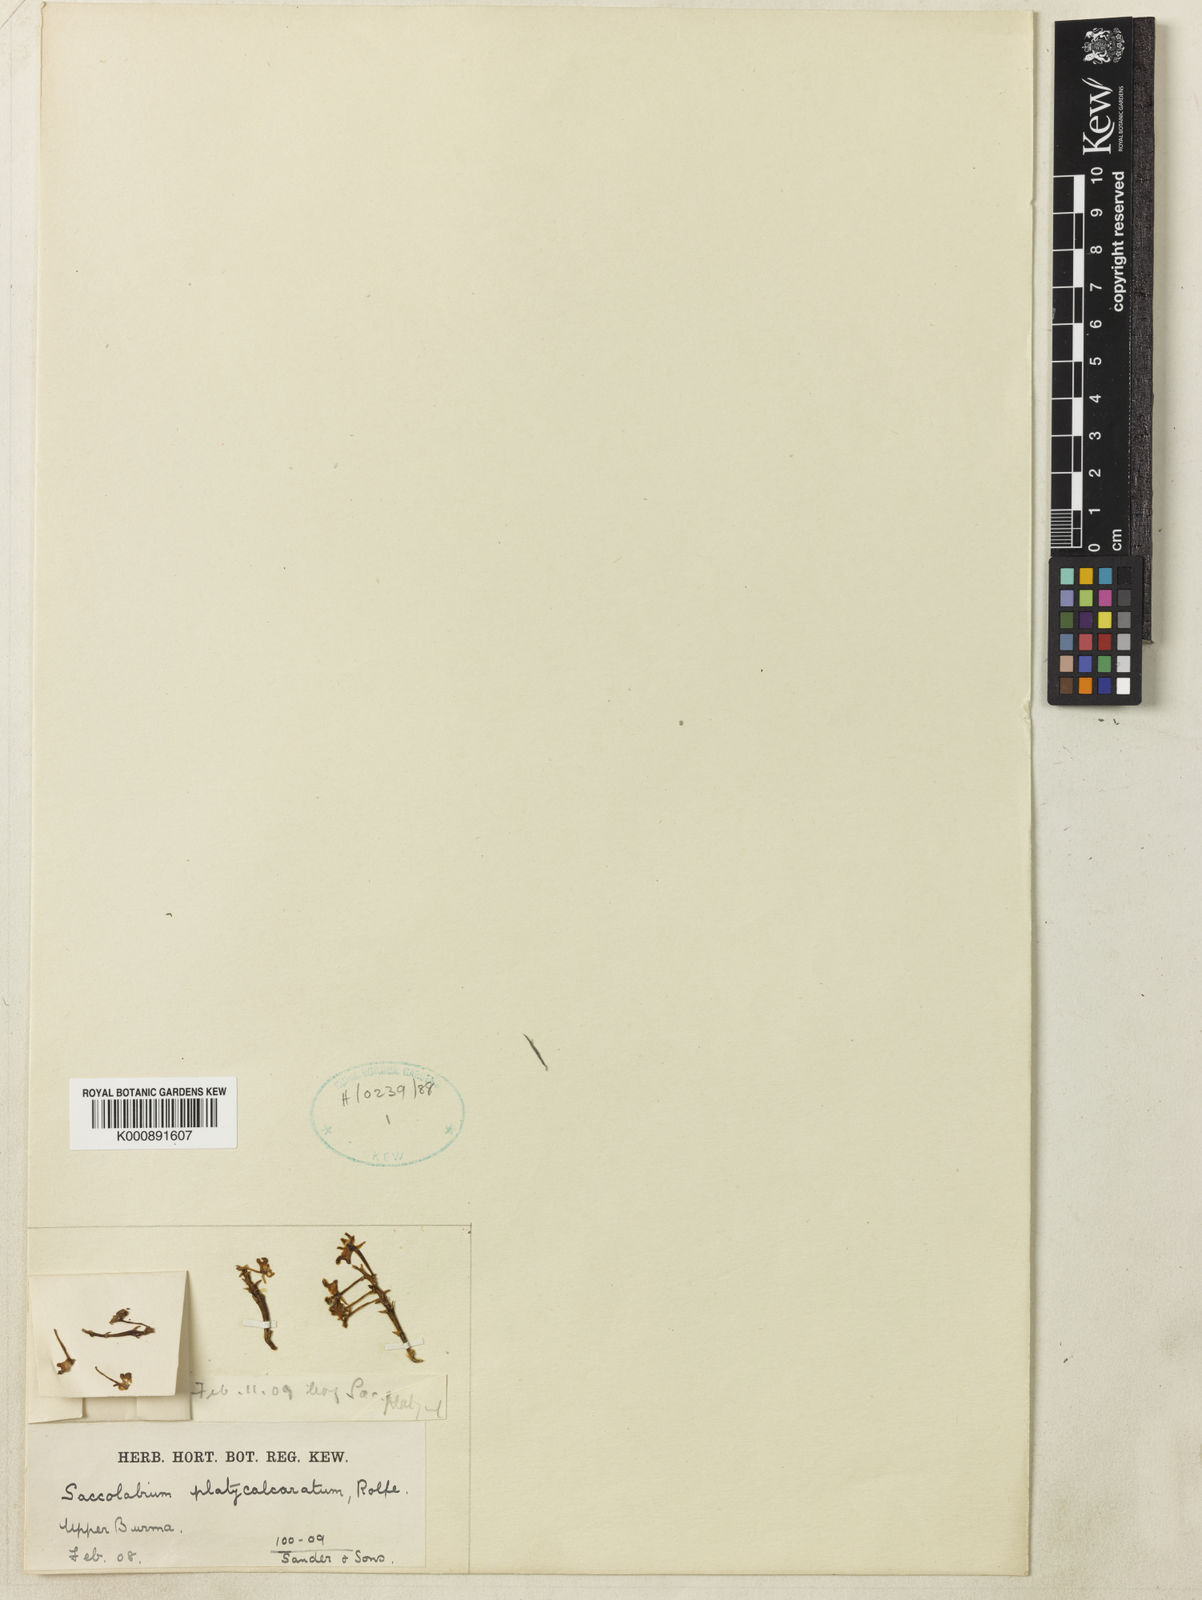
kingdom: Plantae
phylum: Tracheophyta
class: Liliopsida
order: Asparagales
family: Orchidaceae
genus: Gastrochilus
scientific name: Gastrochilus platycalcaratus
